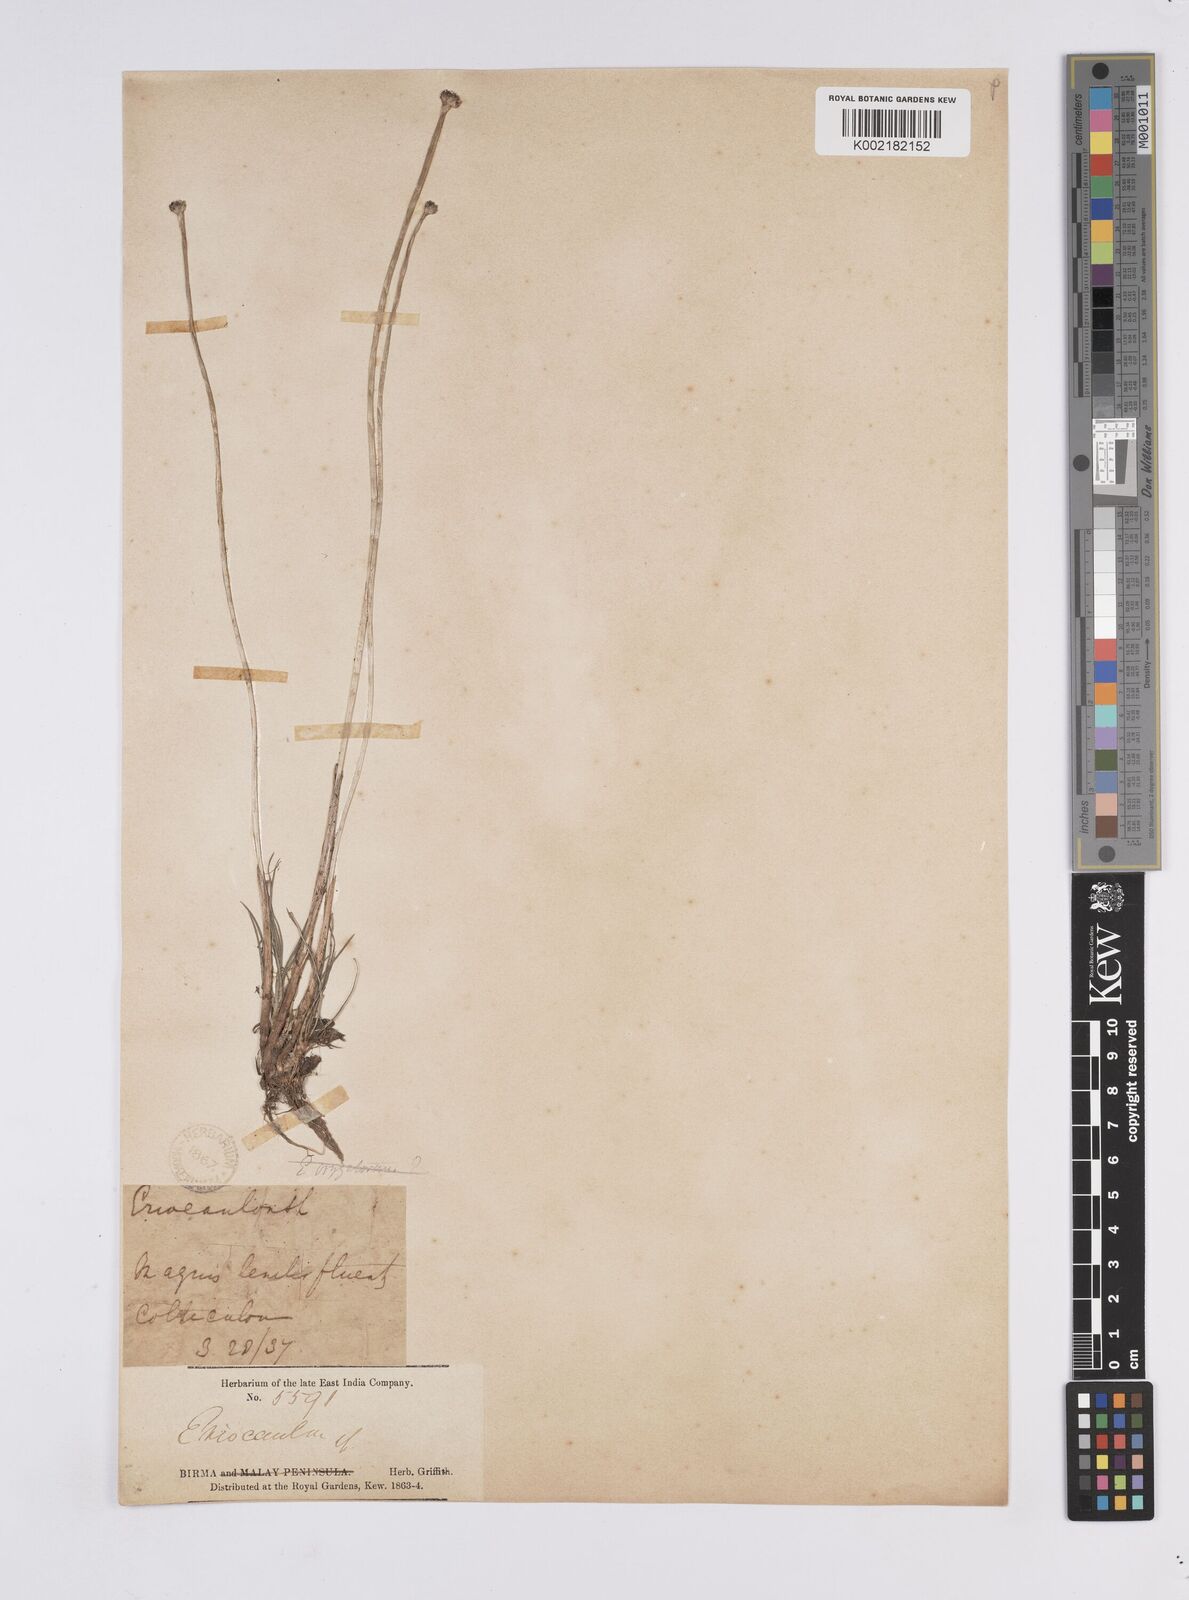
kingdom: Plantae
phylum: Tracheophyta
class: Liliopsida
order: Poales
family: Eriocaulaceae
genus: Eriocaulon
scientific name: Eriocaulon
